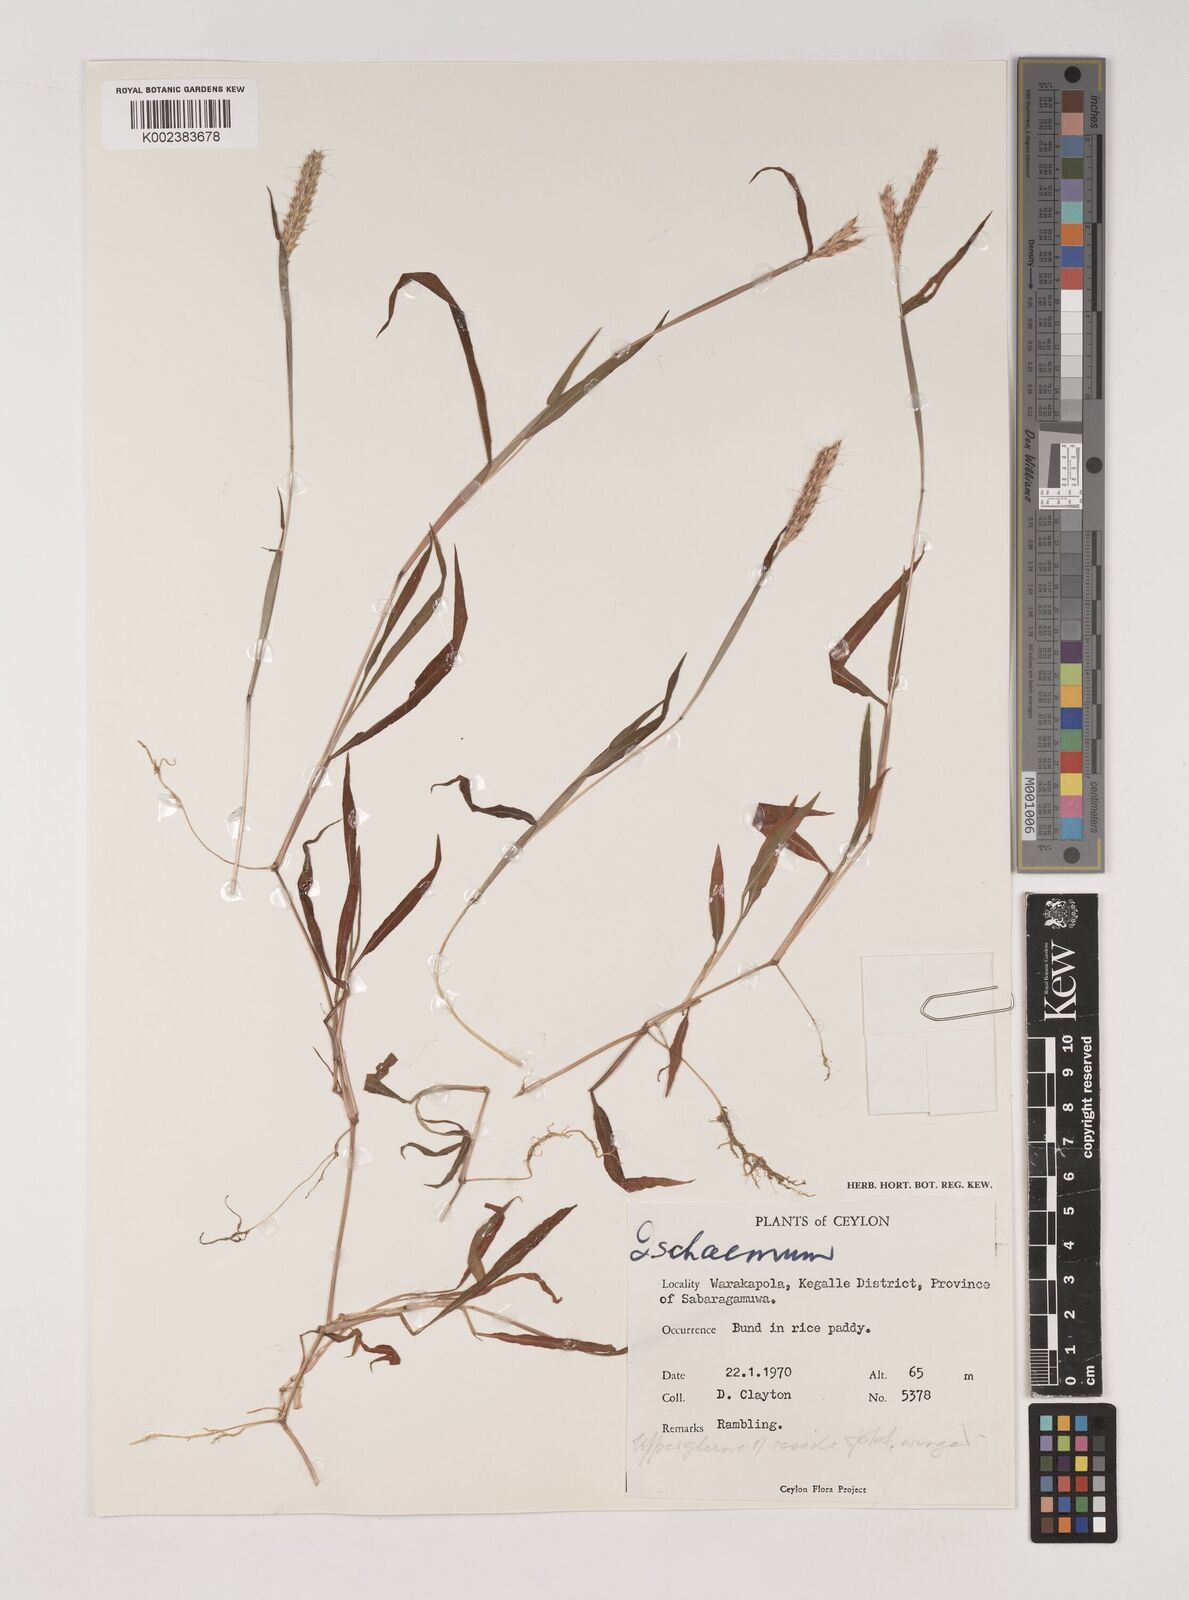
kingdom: Plantae
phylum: Tracheophyta
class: Liliopsida
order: Poales
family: Poaceae
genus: Ischaemum
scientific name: Ischaemum
